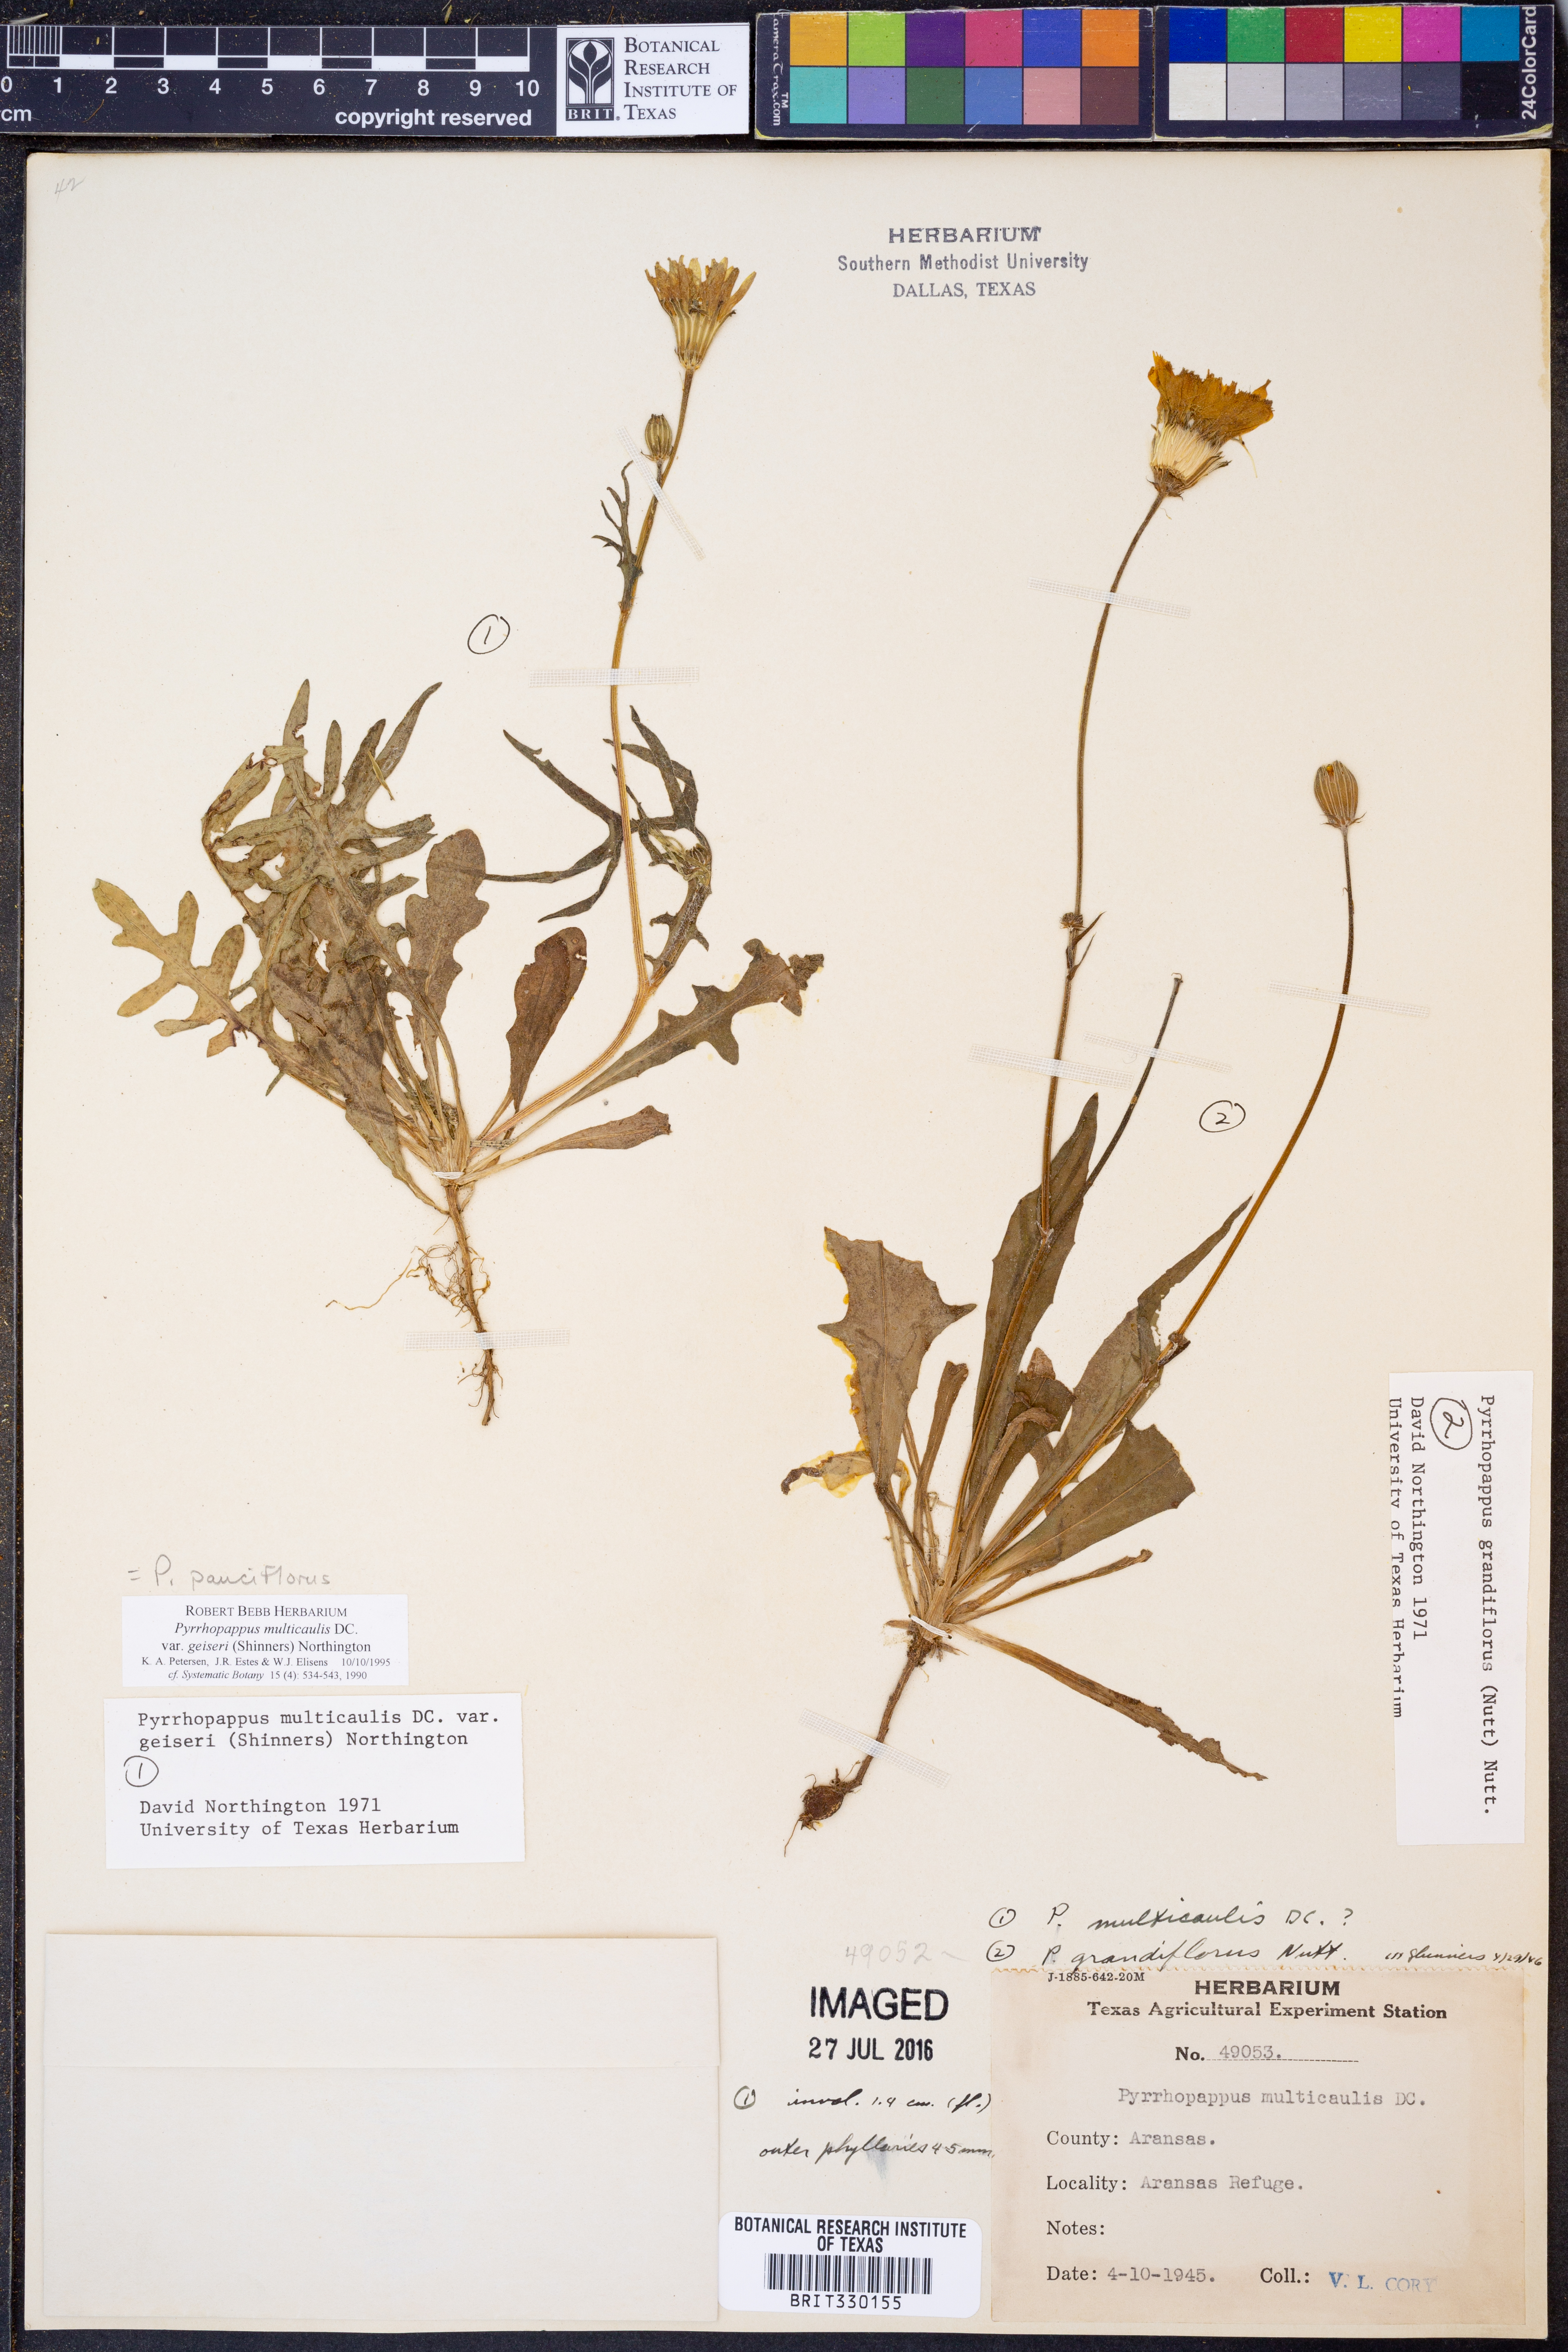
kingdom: Plantae
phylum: Tracheophyta
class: Magnoliopsida
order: Asterales
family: Asteraceae
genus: Pyrrhopappus
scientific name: Pyrrhopappus pauciflorus
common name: Texas false dandelion
